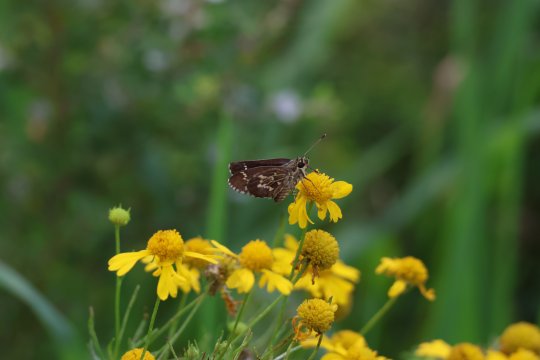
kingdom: Animalia
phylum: Arthropoda
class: Insecta
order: Lepidoptera
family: Hesperiidae
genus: Mastor
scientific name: Mastor aesculapius
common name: Lace-winged Roadside-Skipper
